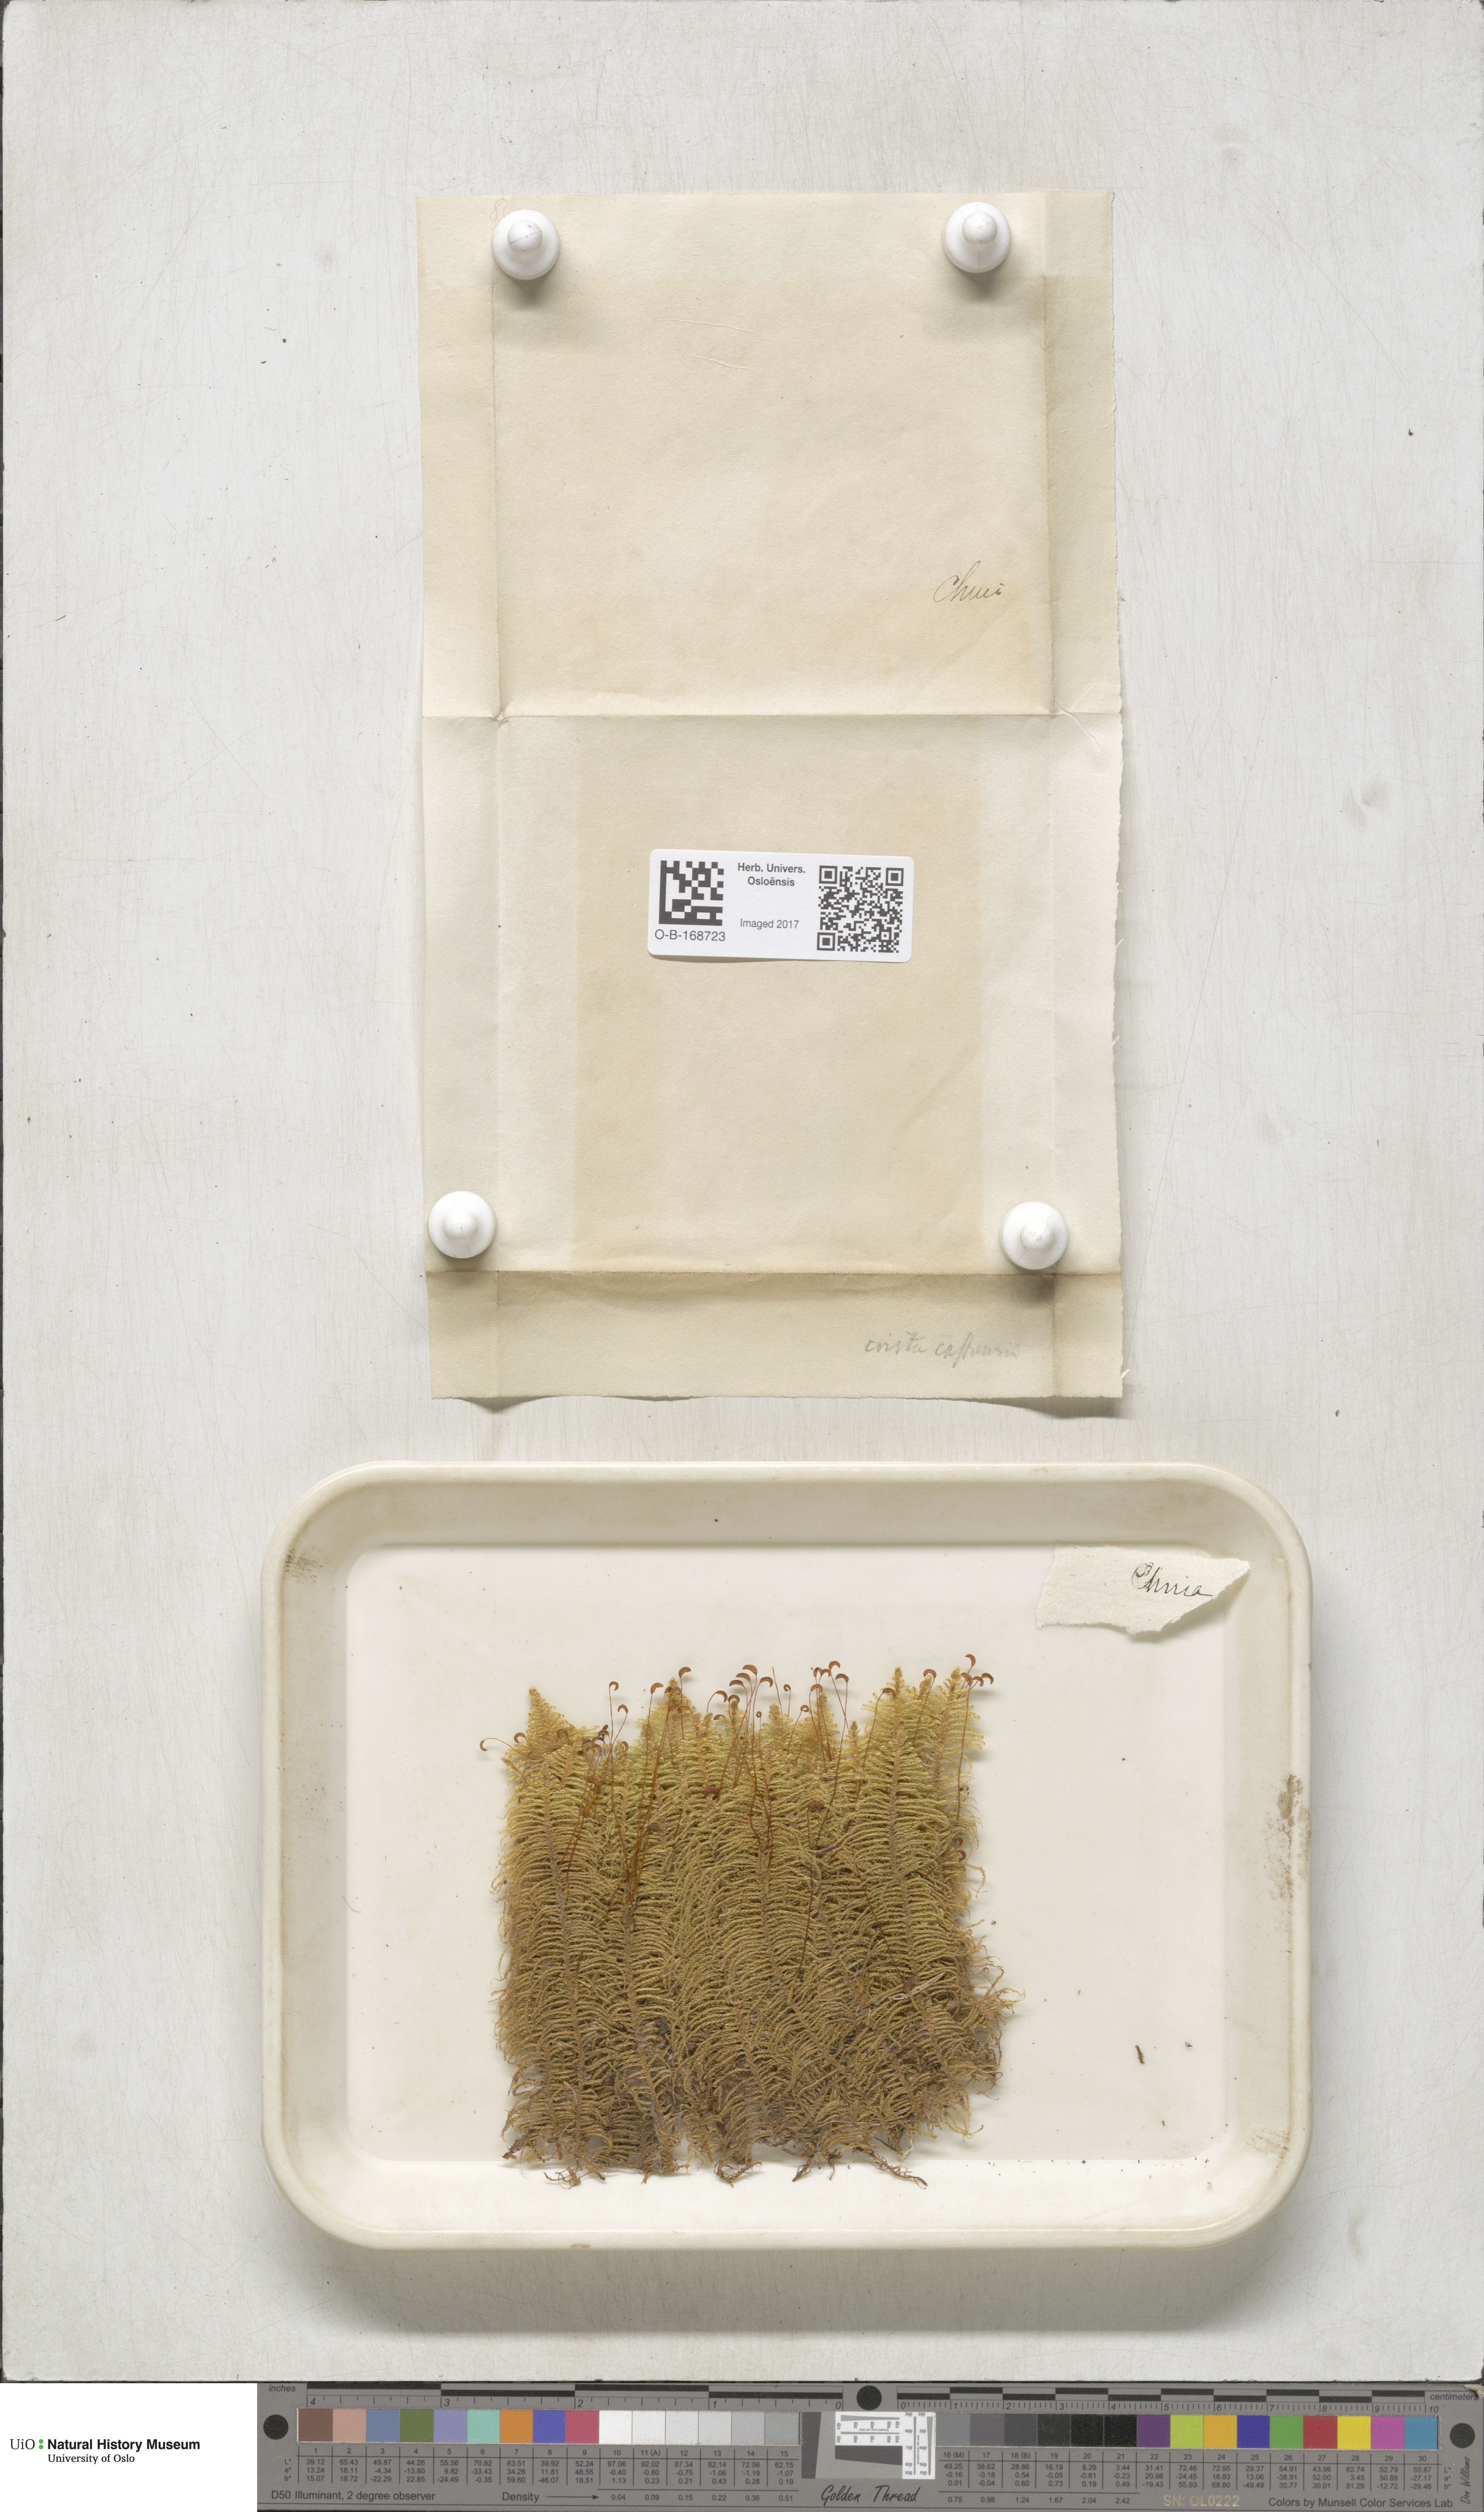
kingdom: Plantae
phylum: Bryophyta
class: Bryopsida
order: Hypnales
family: Pylaisiaceae
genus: Ptilium
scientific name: Ptilium crista-castrensis
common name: Knight's plume moss
